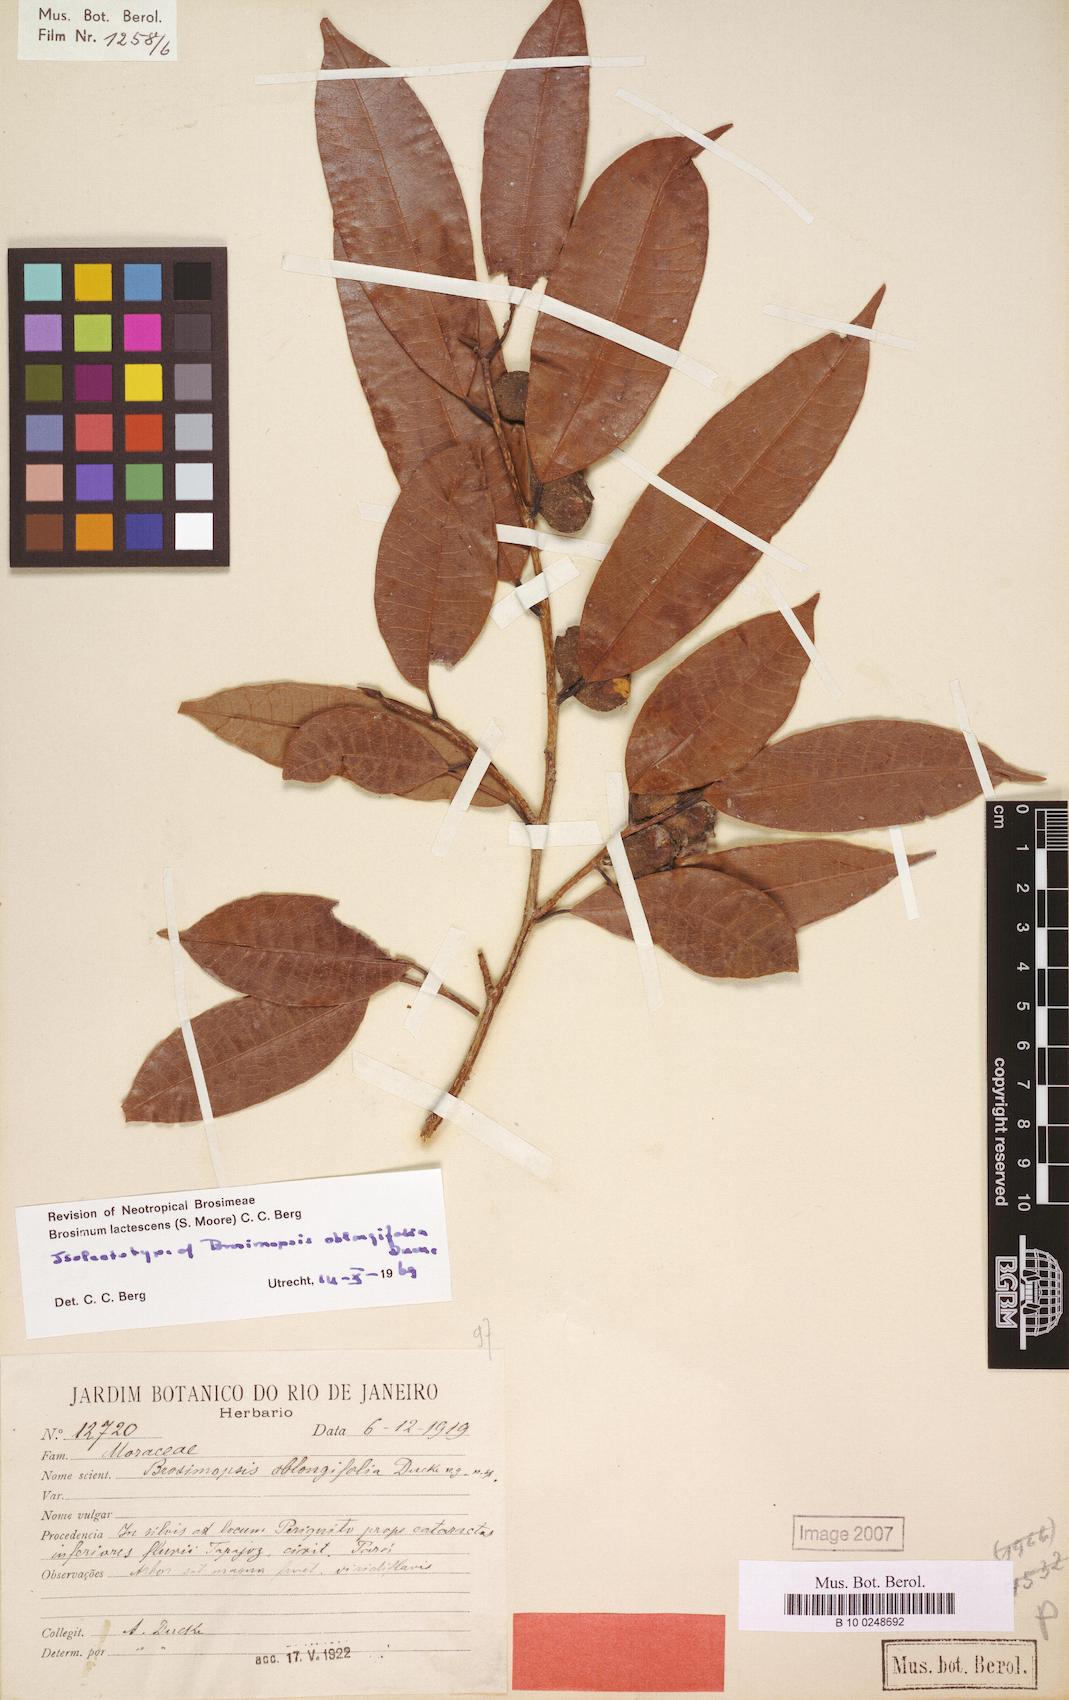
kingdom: Plantae
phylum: Tracheophyta
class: Magnoliopsida
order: Rosales
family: Moraceae
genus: Brosimum
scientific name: Brosimum lactescens
